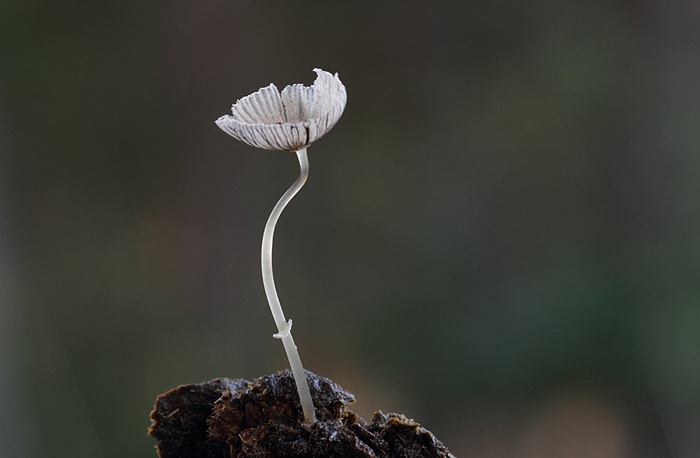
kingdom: Fungi
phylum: Basidiomycota
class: Agaricomycetes
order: Agaricales
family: Psathyrellaceae
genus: Narcissea
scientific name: Narcissea ephemeroides
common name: ring-blækhat
